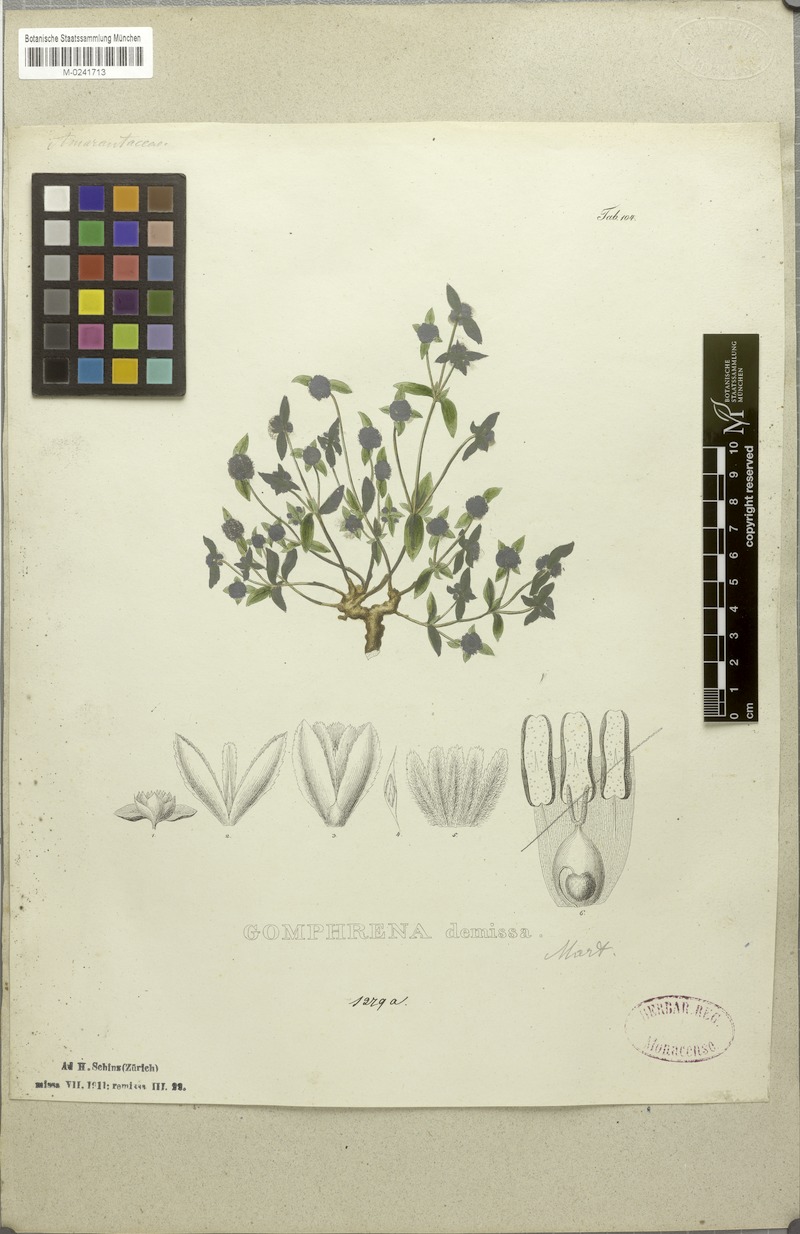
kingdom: Plantae
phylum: Tracheophyta
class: Magnoliopsida
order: Caryophyllales
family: Amaranthaceae
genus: Gomphrena
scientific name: Gomphrena demissa
